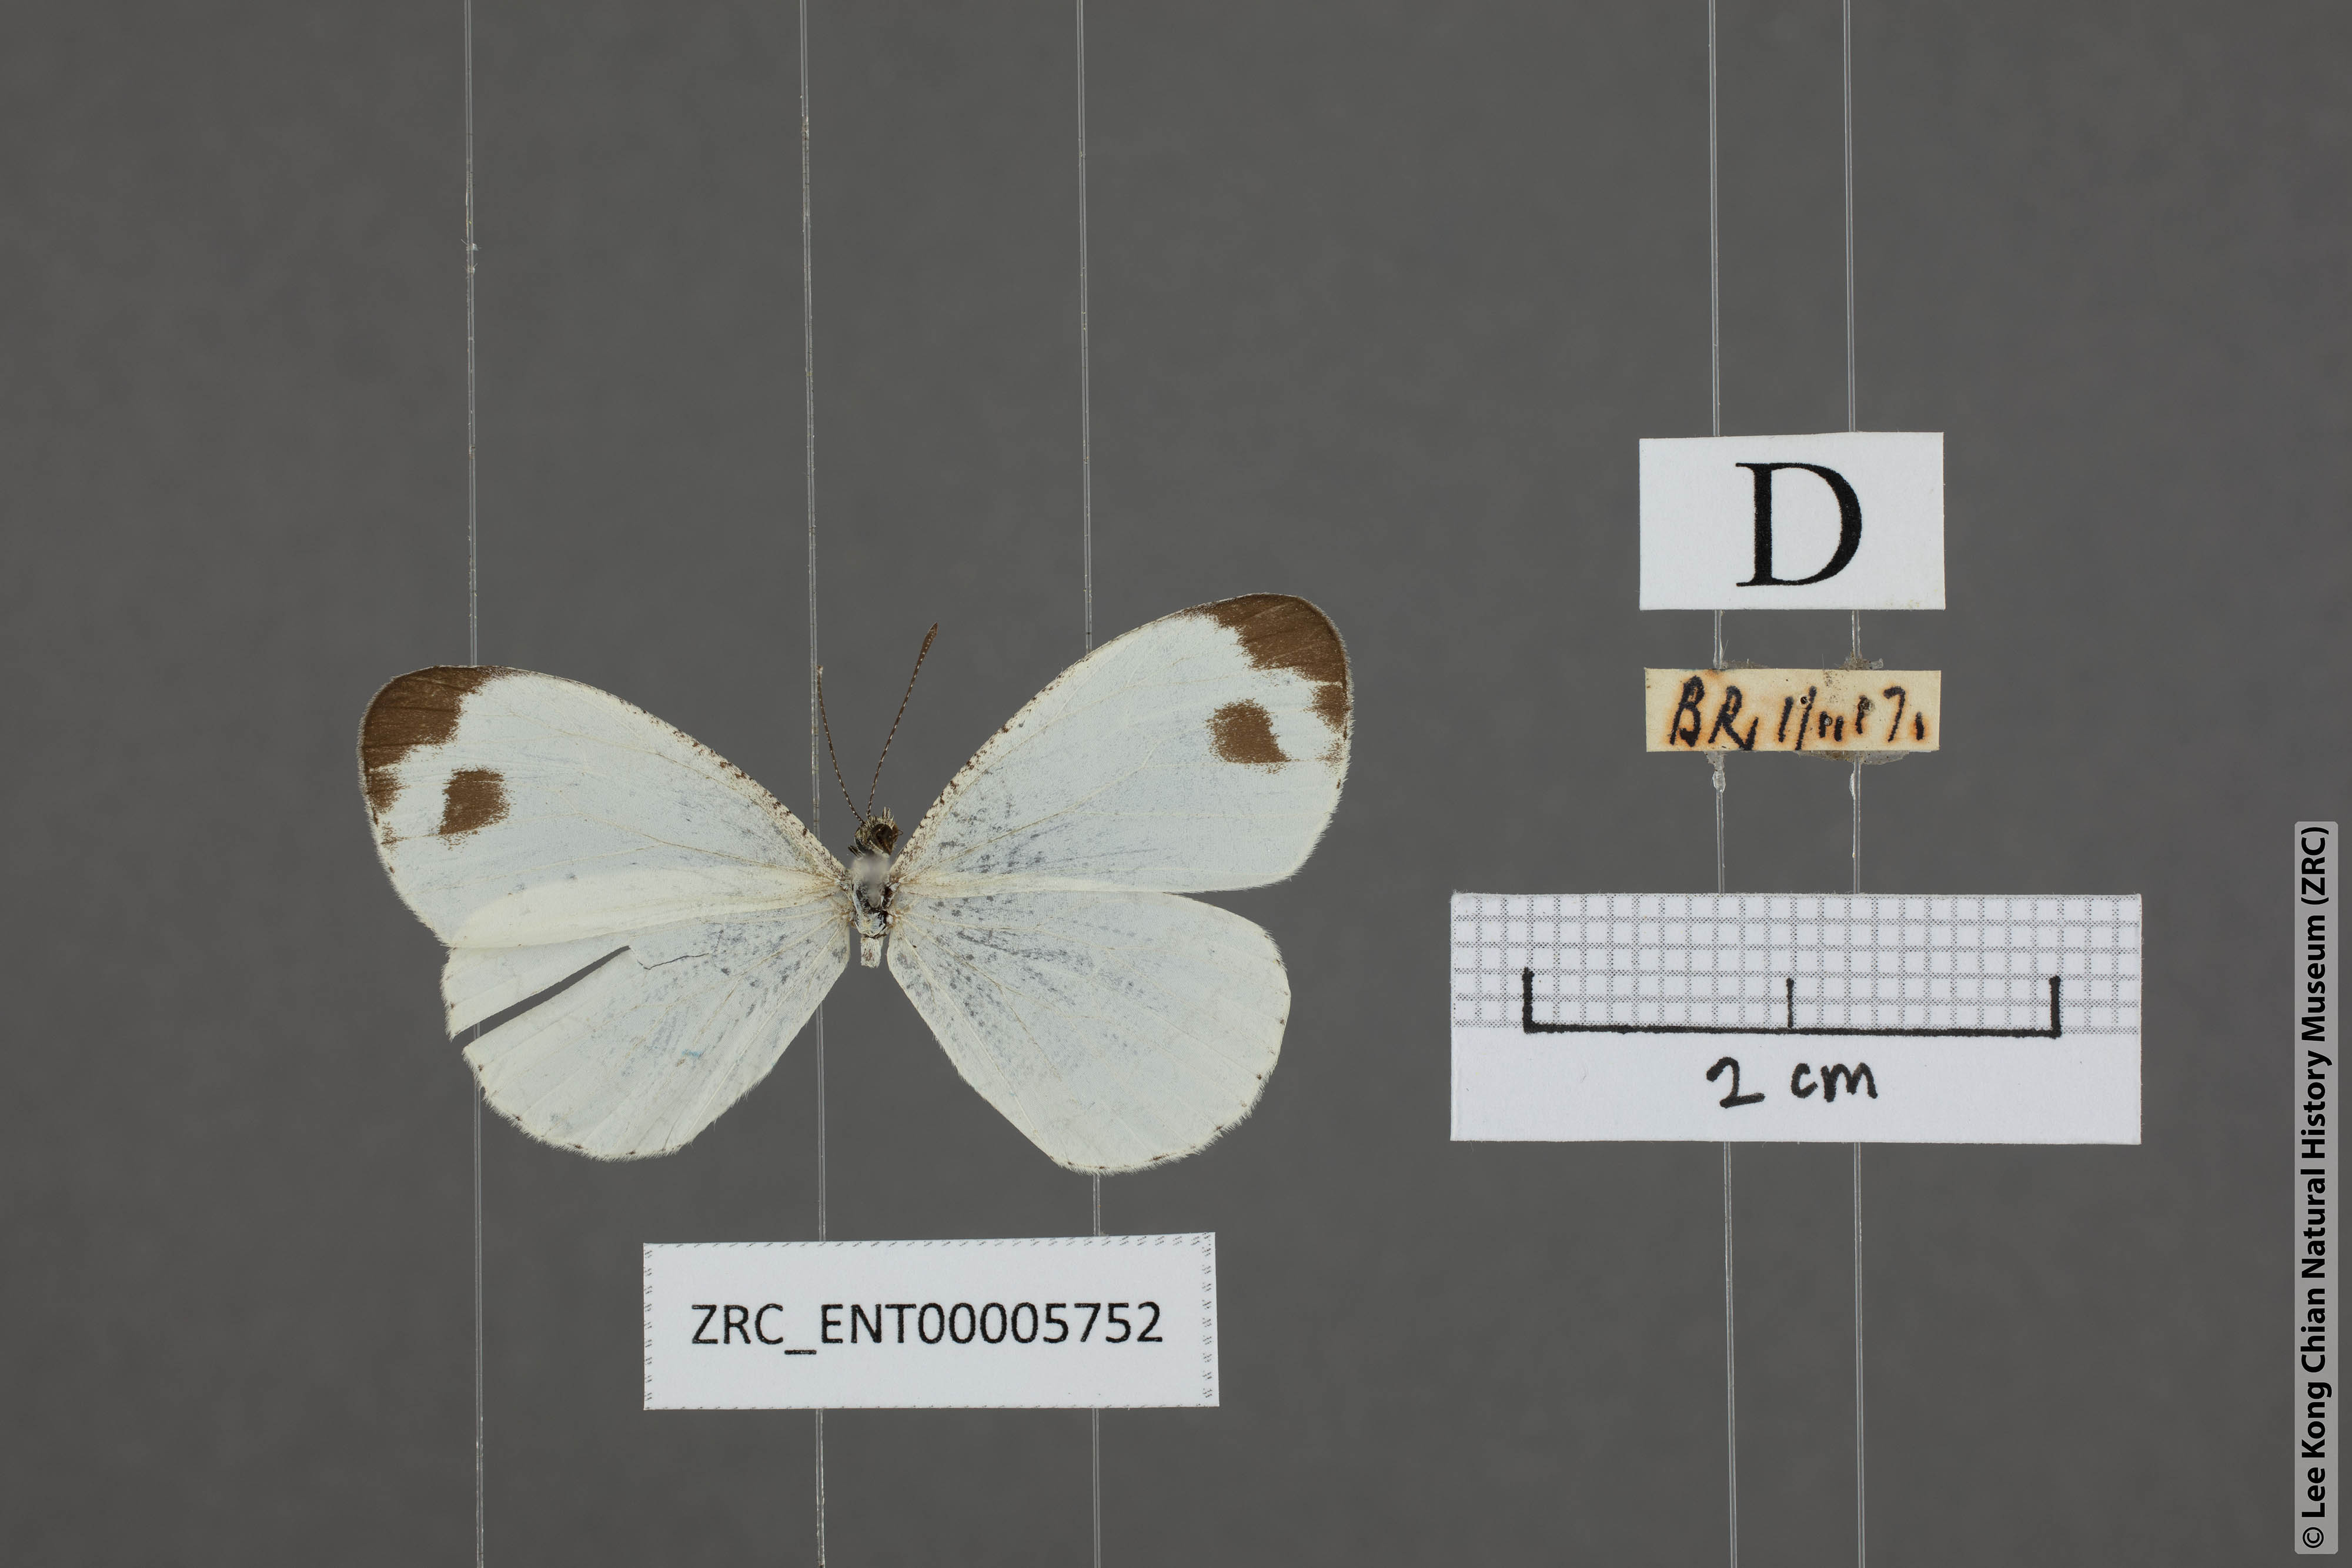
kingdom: Animalia
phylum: Arthropoda
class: Insecta
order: Lepidoptera
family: Pieridae
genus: Leptosia
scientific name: Leptosia nina
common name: Psyche
